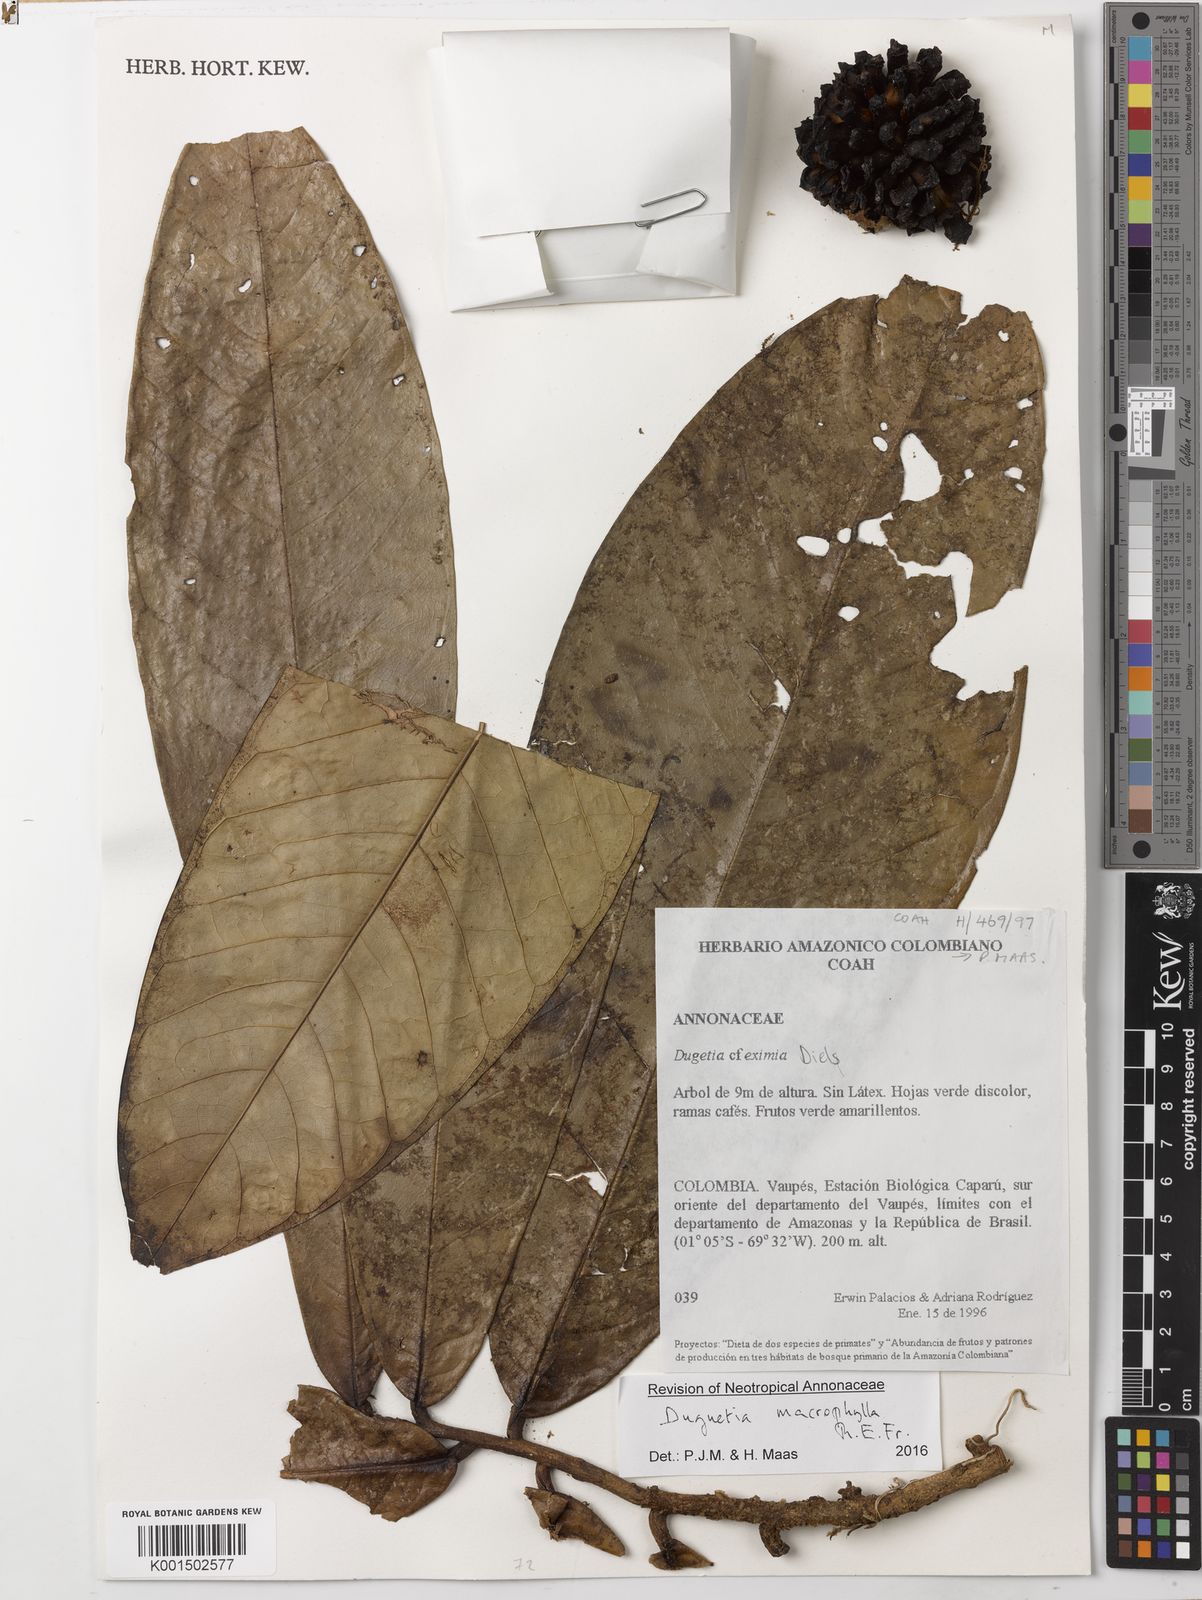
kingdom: Plantae
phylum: Tracheophyta
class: Magnoliopsida
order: Magnoliales
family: Annonaceae
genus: Duguetia
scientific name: Duguetia macrophylla
